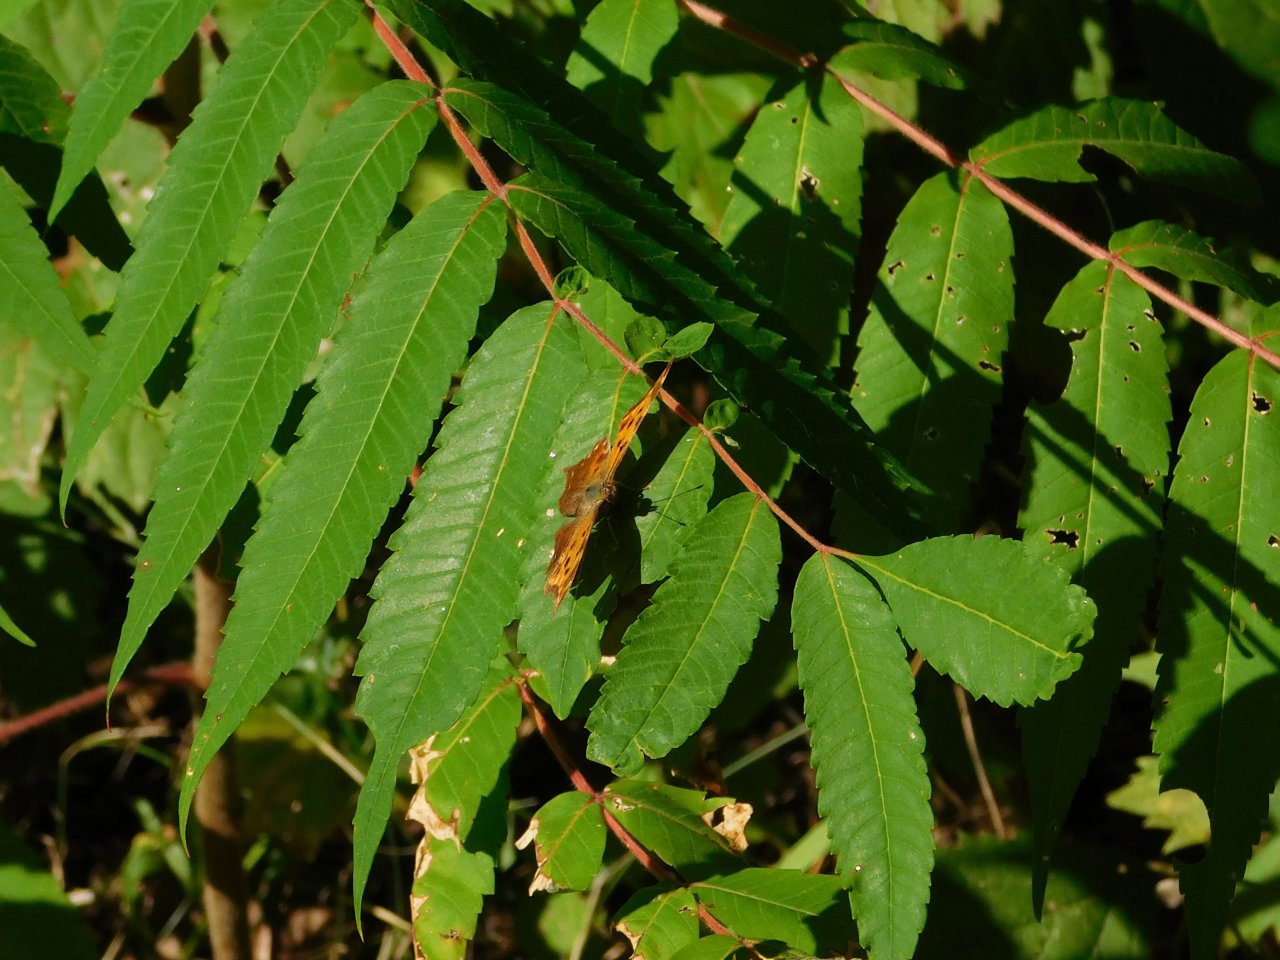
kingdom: Animalia
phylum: Arthropoda
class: Insecta
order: Lepidoptera
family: Nymphalidae
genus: Polygonia
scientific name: Polygonia
